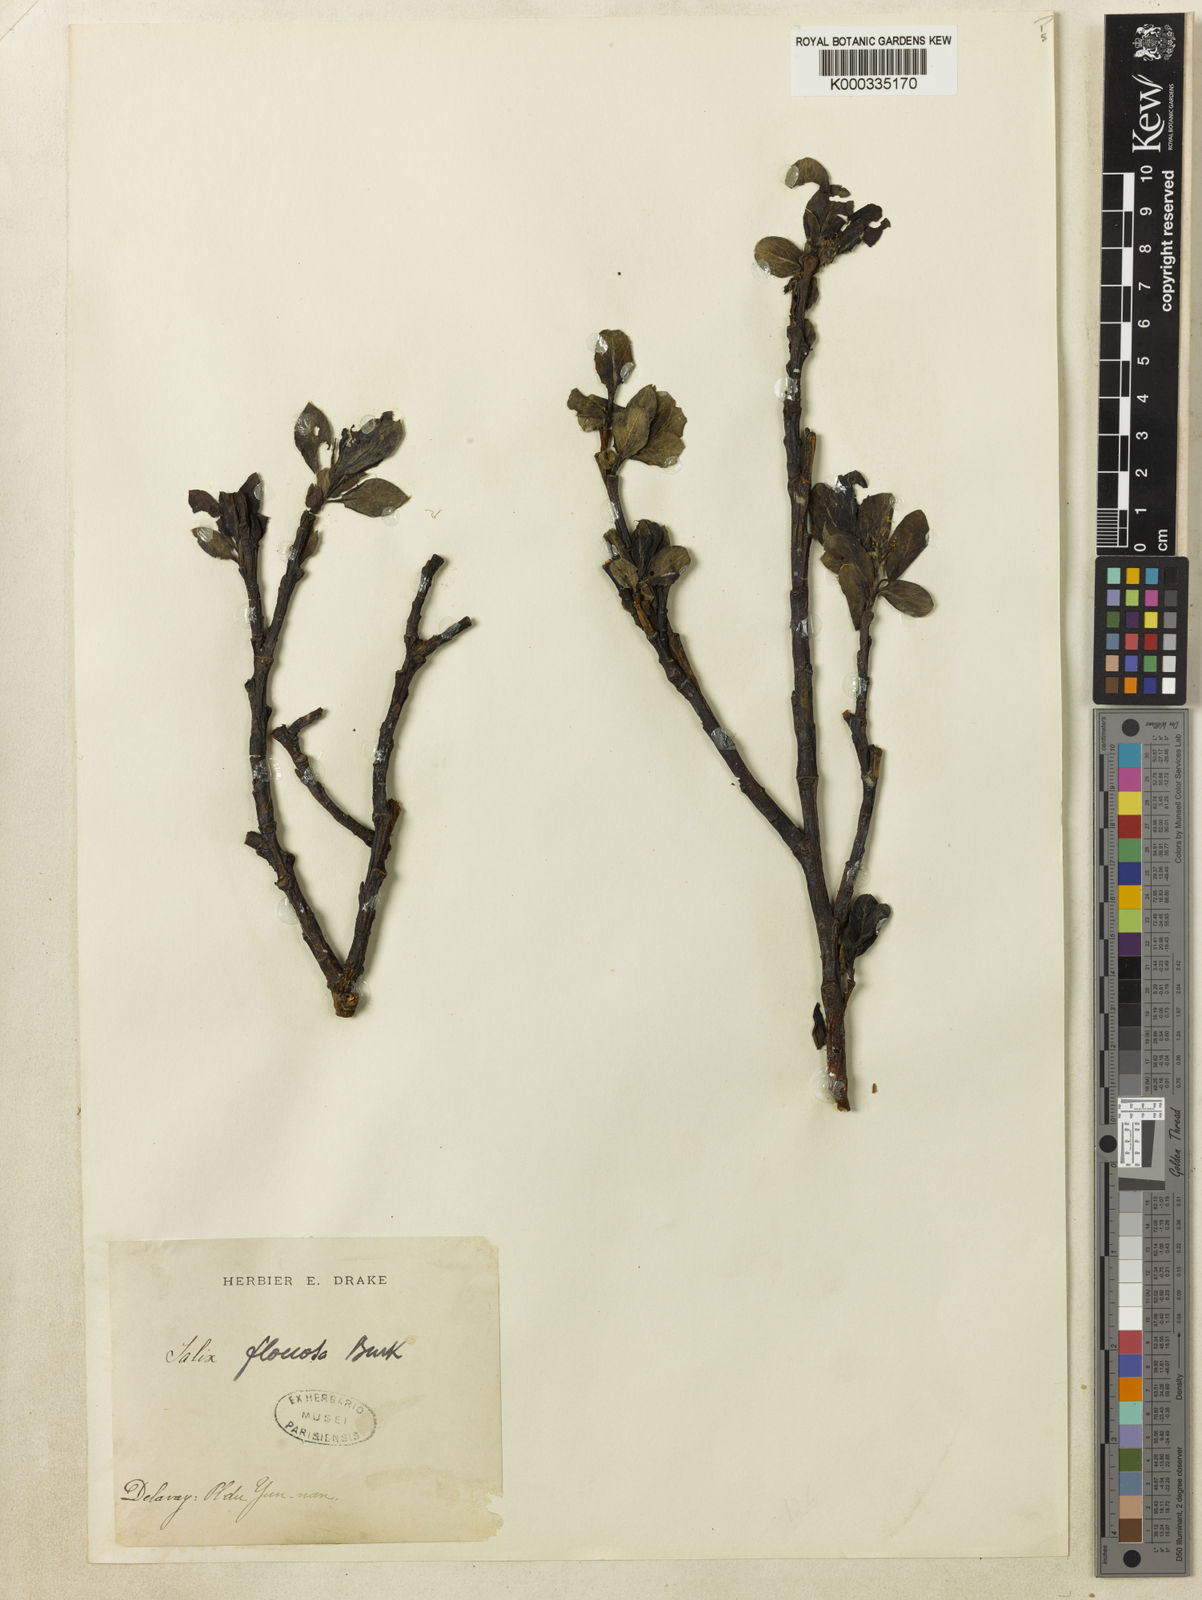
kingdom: Plantae
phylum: Tracheophyta
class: Magnoliopsida
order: Malpighiales
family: Salicaceae
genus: Salix
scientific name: Salix floccosa
